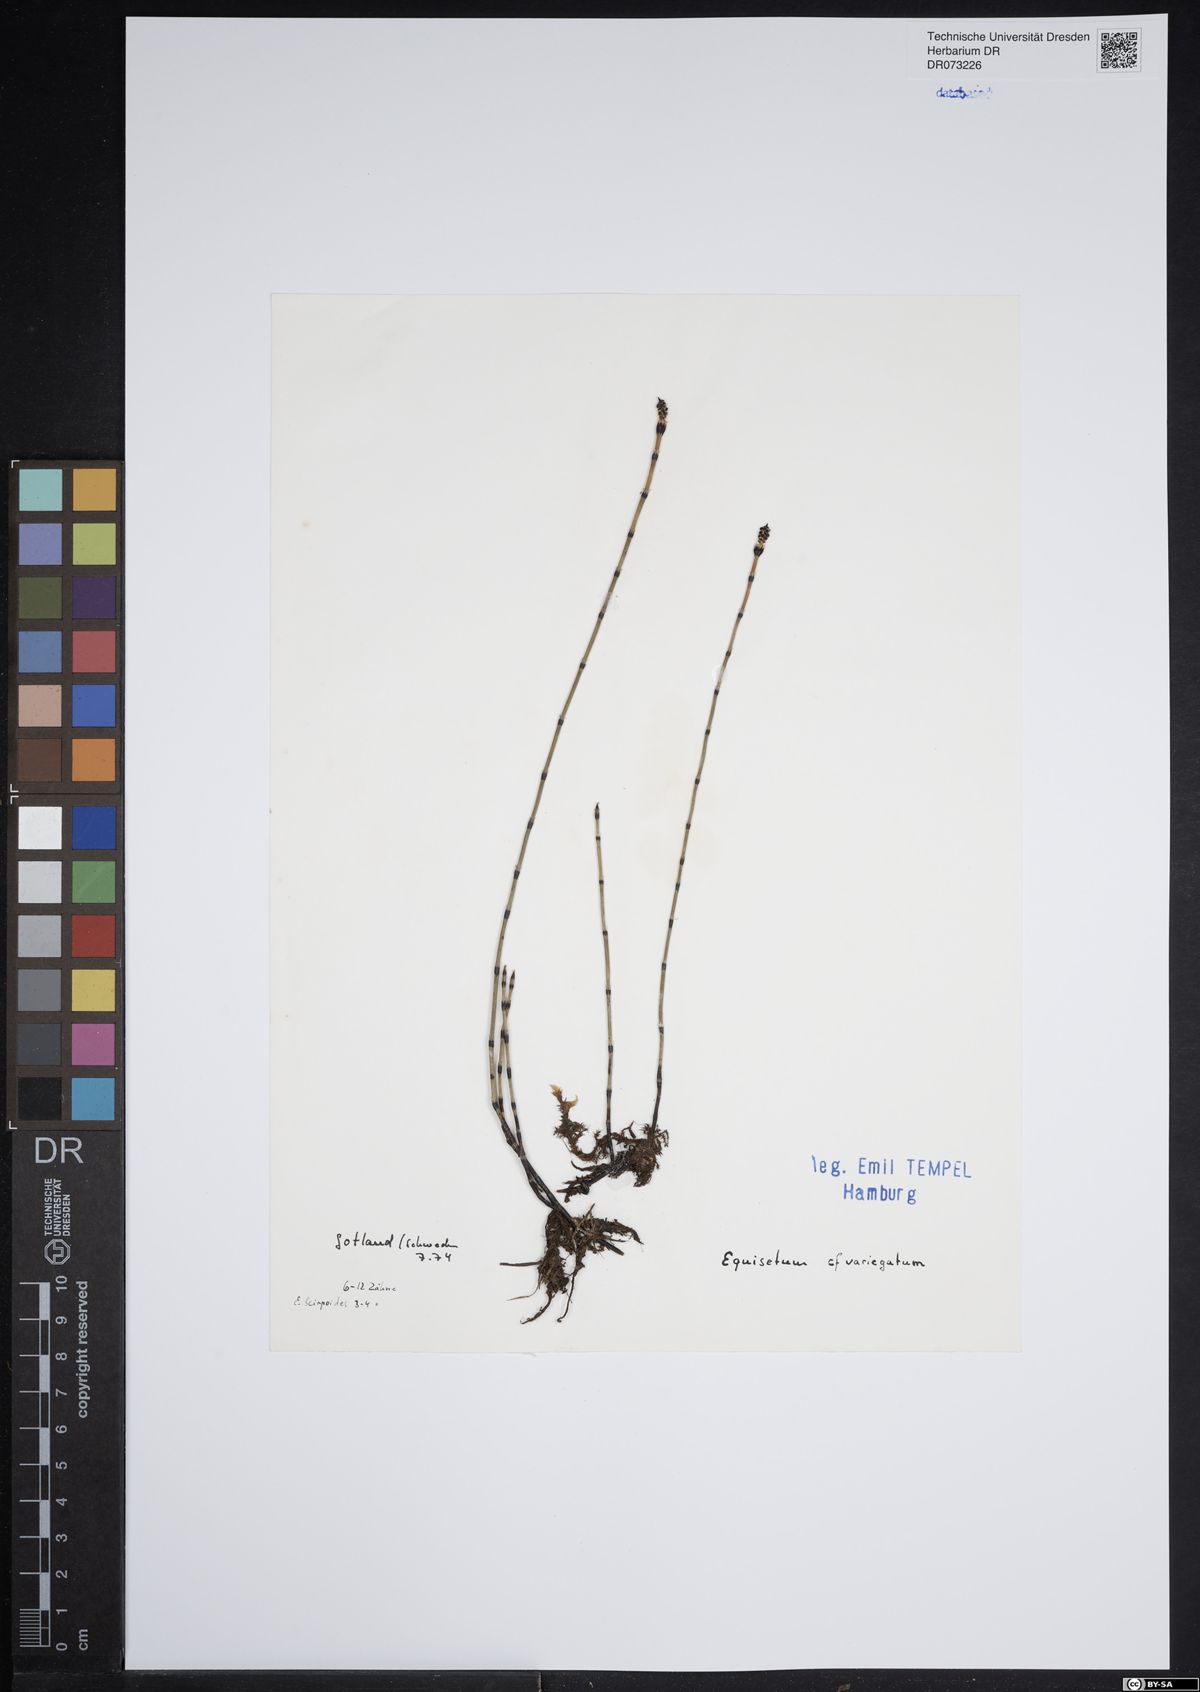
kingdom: Plantae
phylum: Tracheophyta
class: Polypodiopsida
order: Equisetales
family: Equisetaceae
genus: Equisetum
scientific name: Equisetum variegatum
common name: Variegated horsetail
